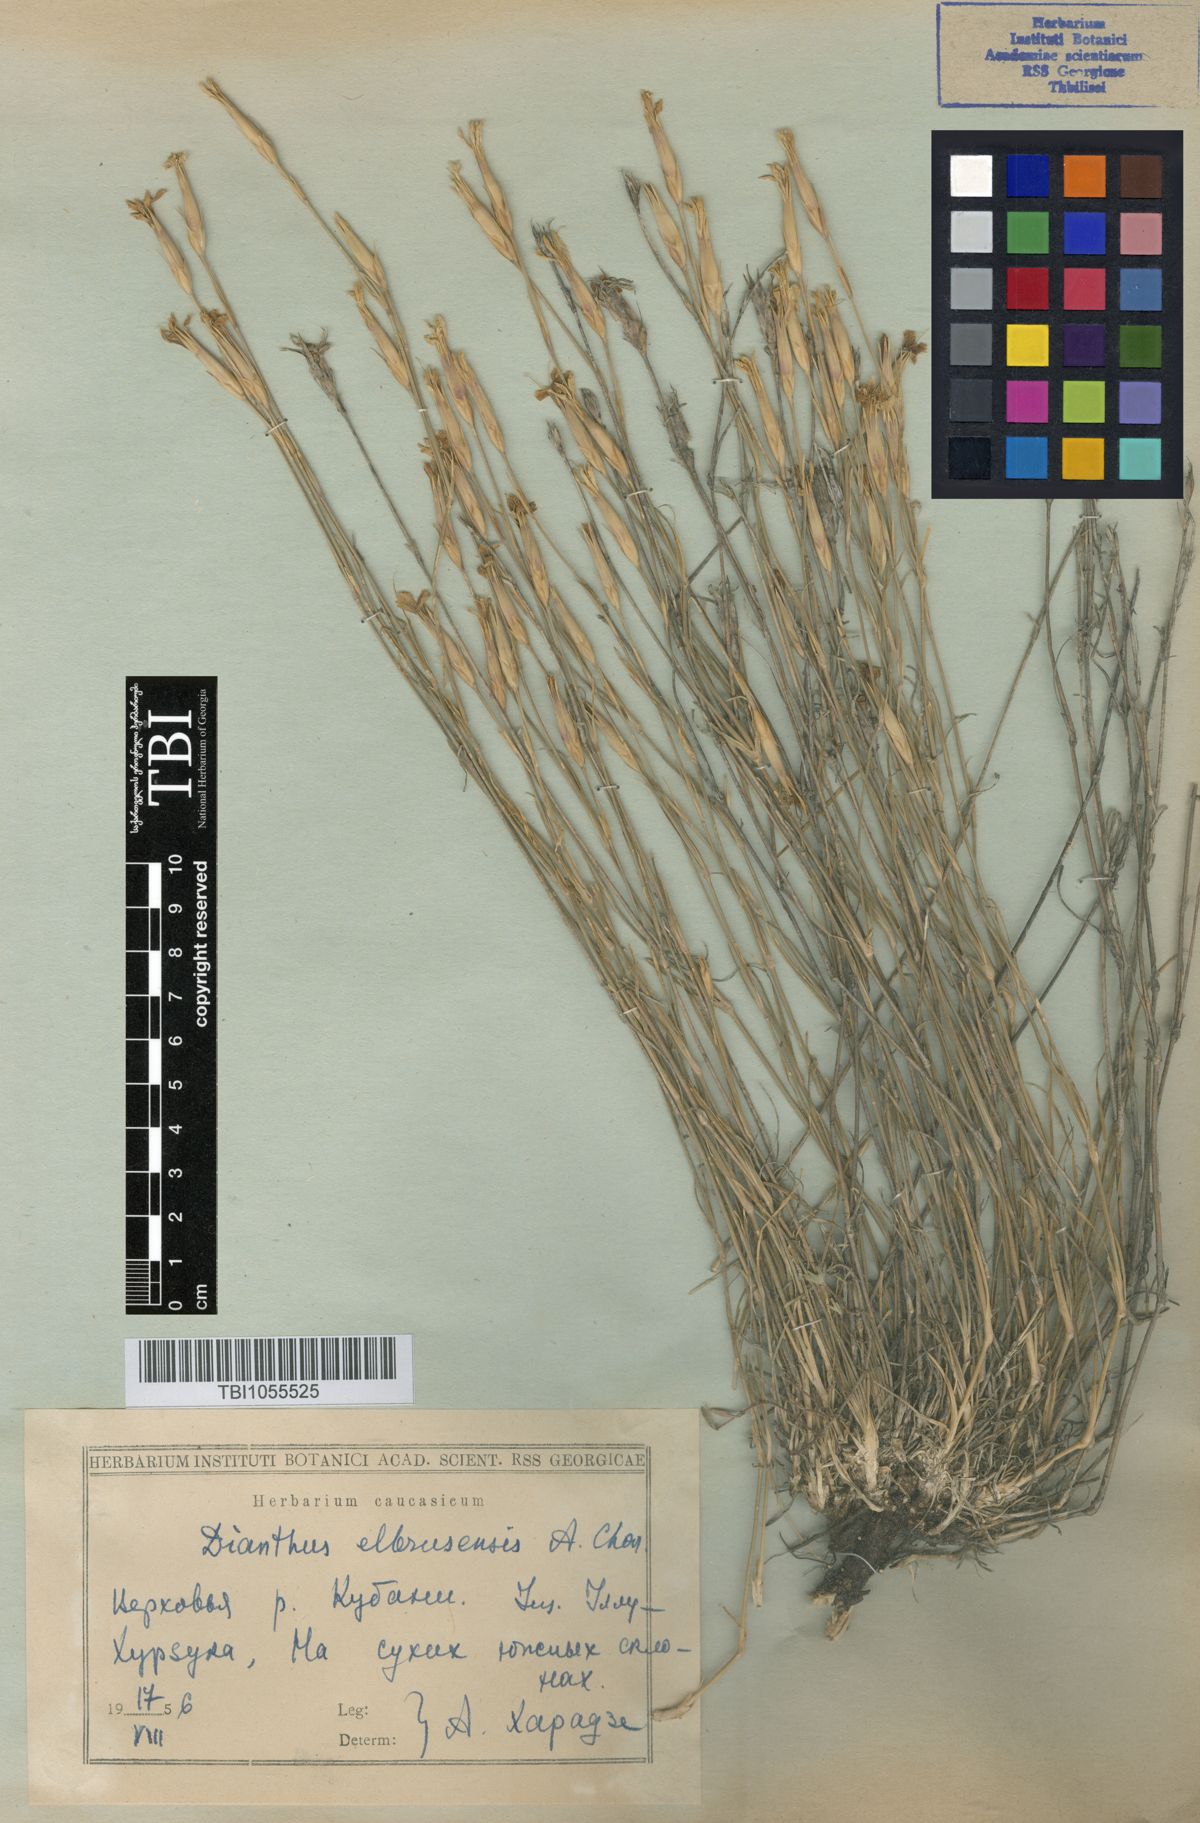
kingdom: Plantae
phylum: Tracheophyta
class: Magnoliopsida
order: Caryophyllales
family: Caryophyllaceae
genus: Dianthus
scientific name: Dianthus
